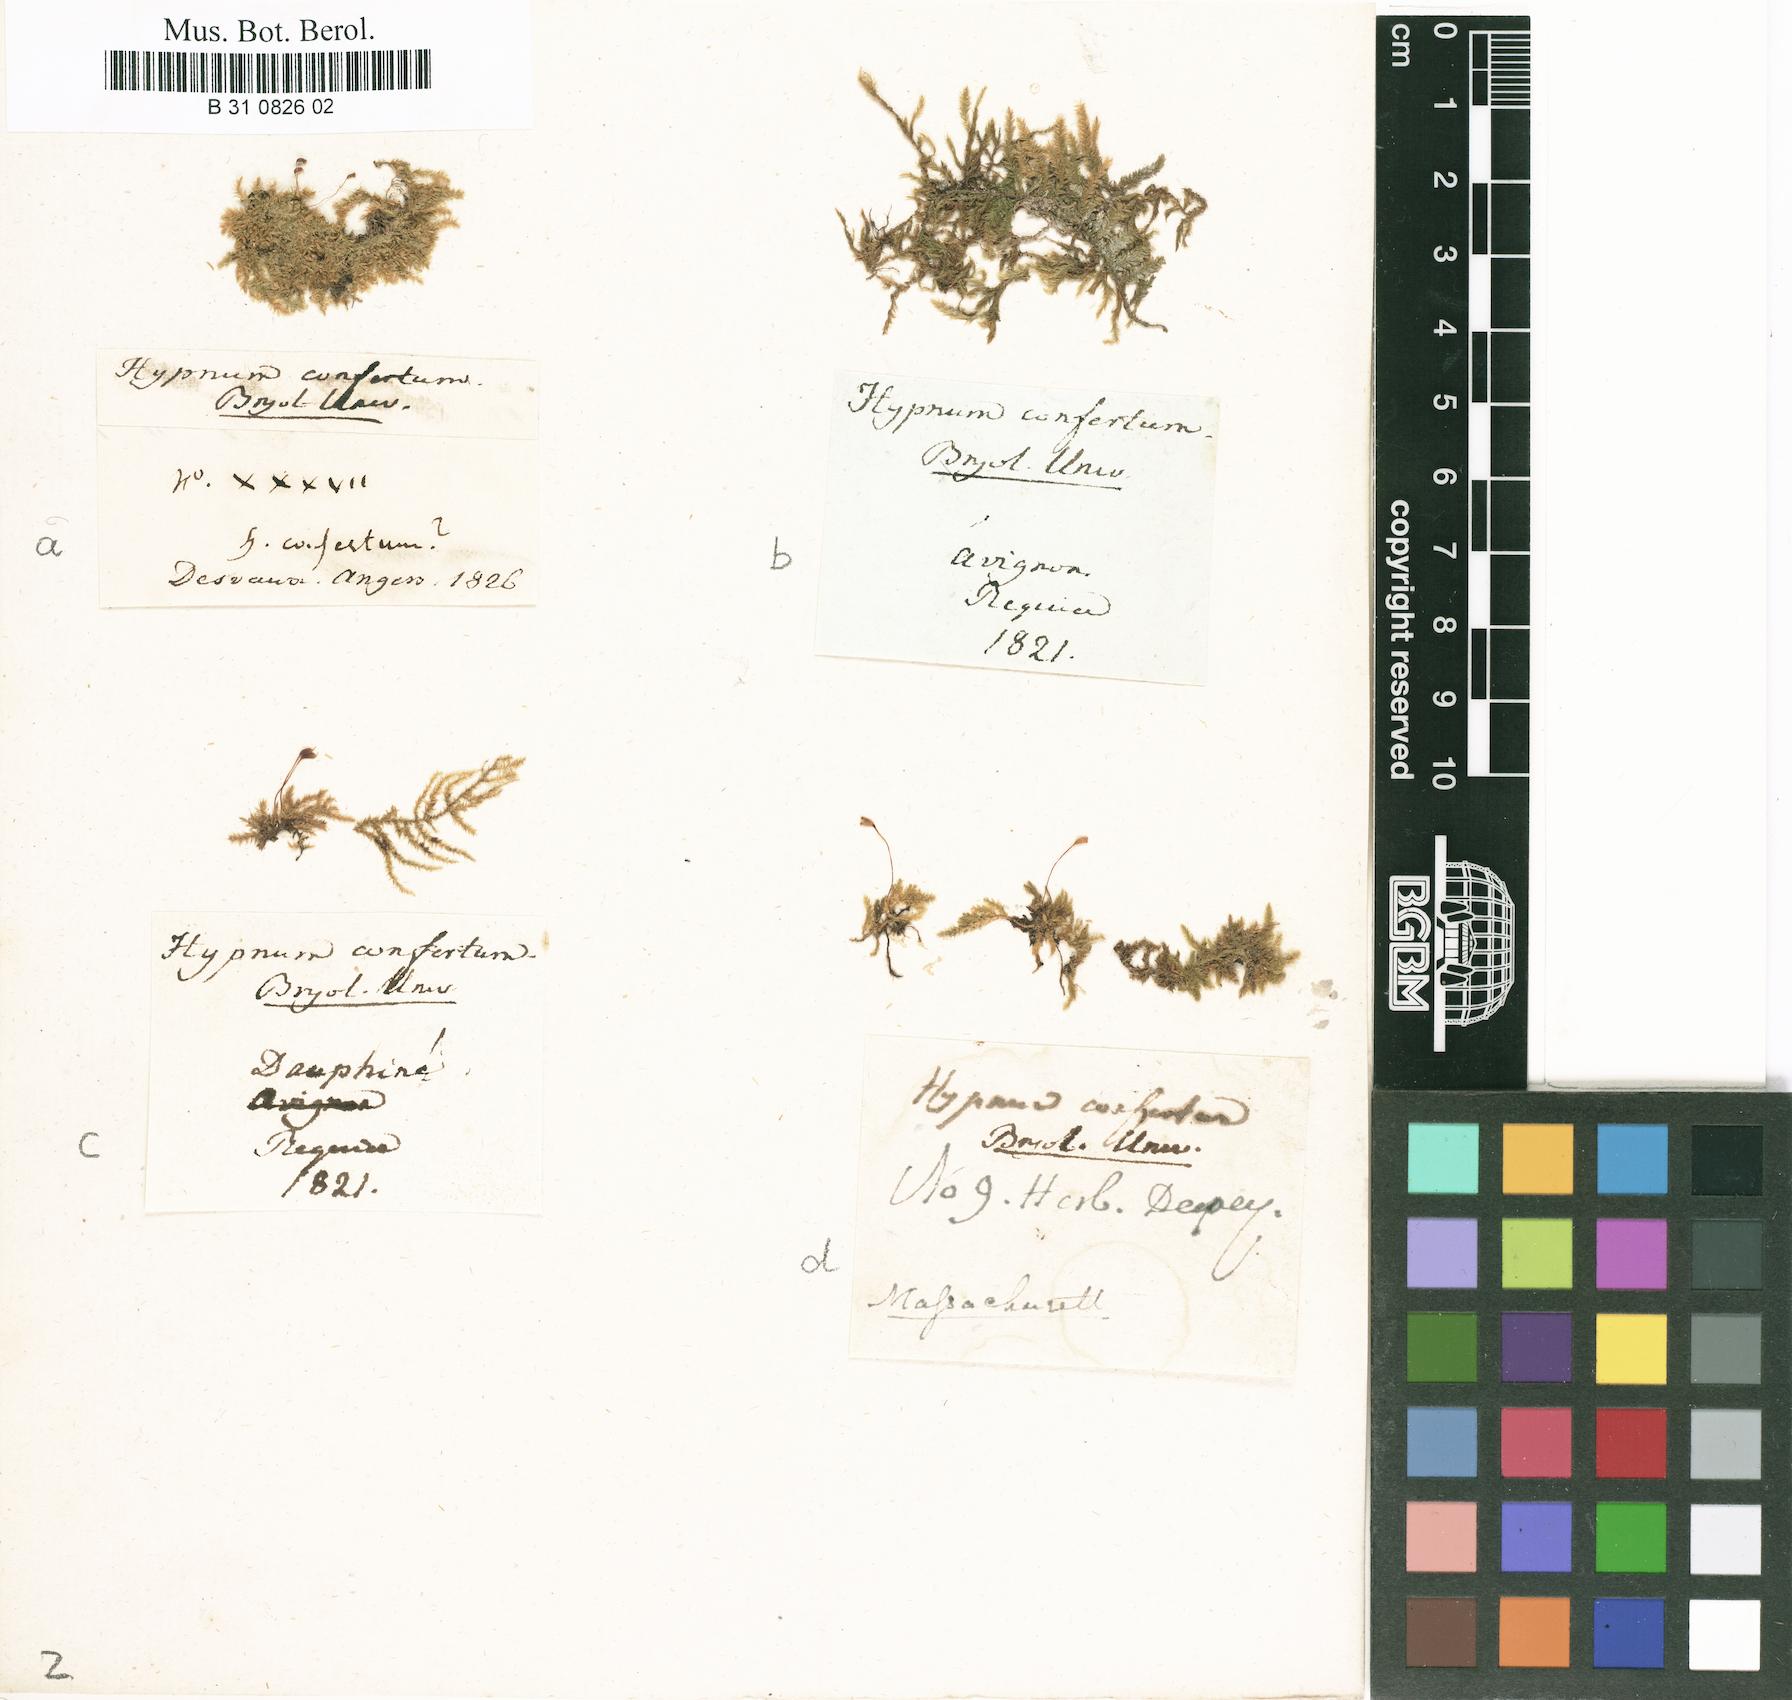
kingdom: Plantae
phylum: Bryophyta
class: Bryopsida
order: Hypnales
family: Brachytheciaceae
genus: Rhynchostegium
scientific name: Rhynchostegium confertum
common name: Clustered feather-moss
